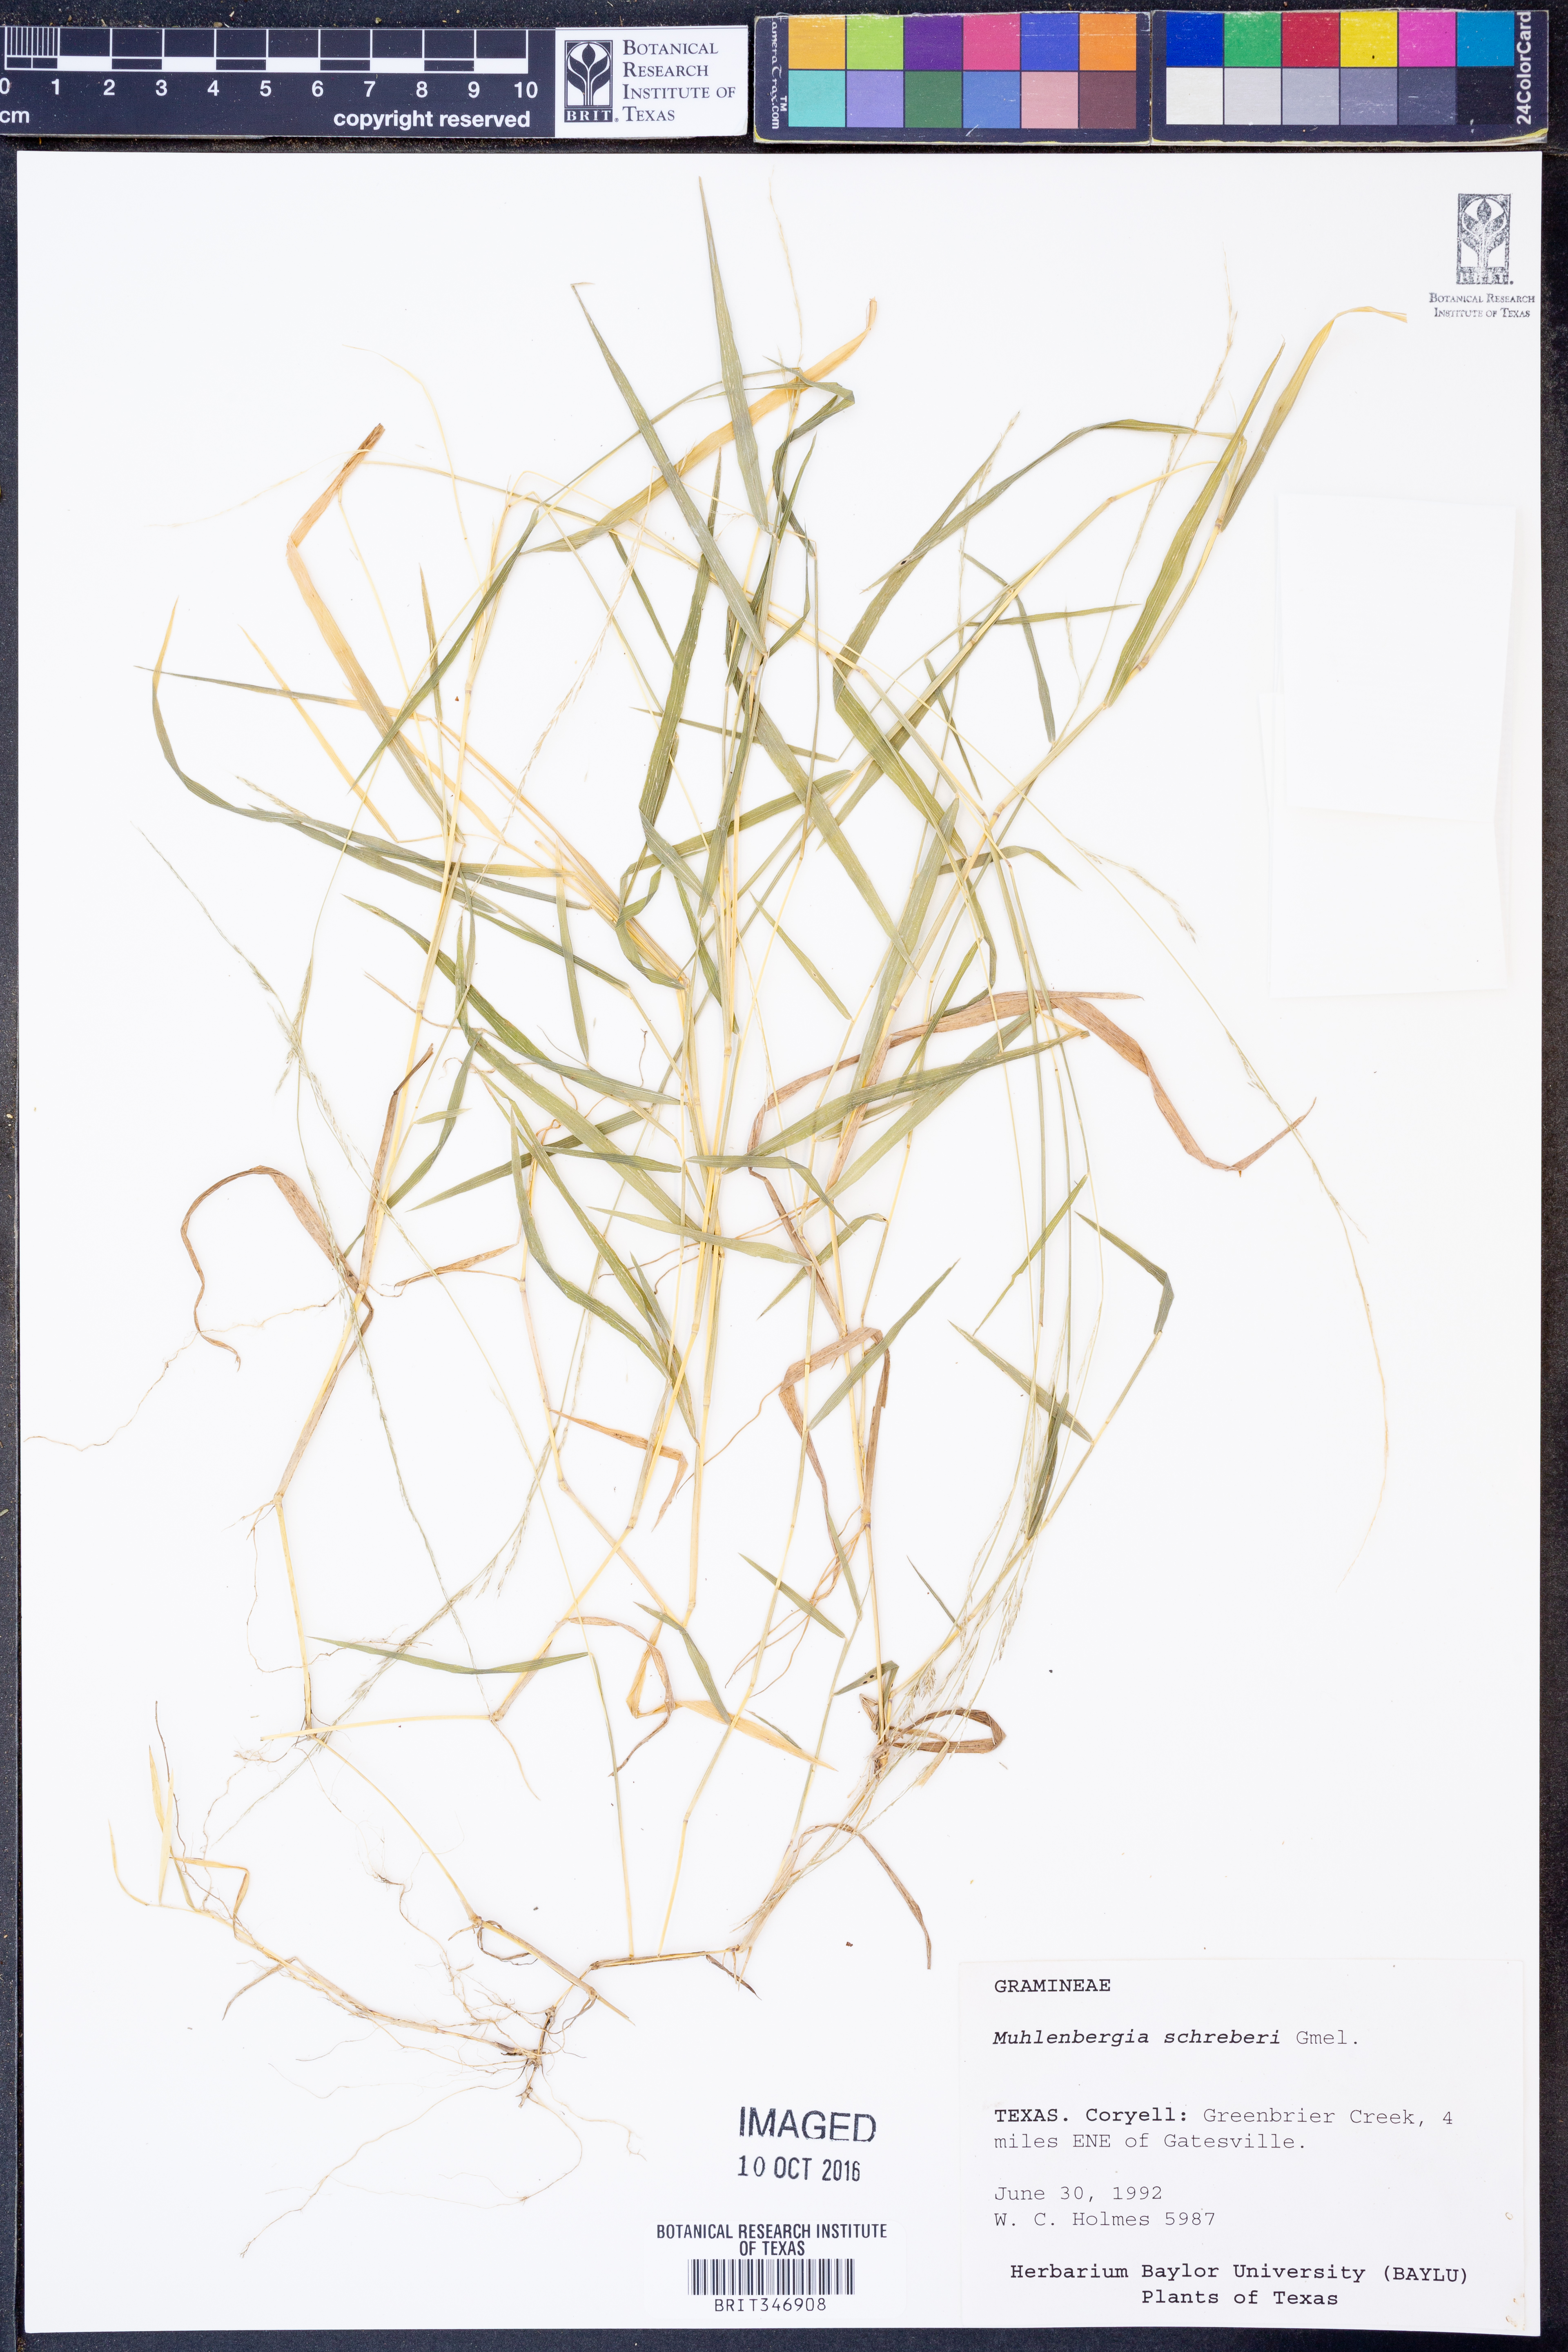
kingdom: Plantae
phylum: Tracheophyta
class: Liliopsida
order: Poales
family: Poaceae
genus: Muhlenbergia
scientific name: Muhlenbergia schreberi
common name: Nimblewill
